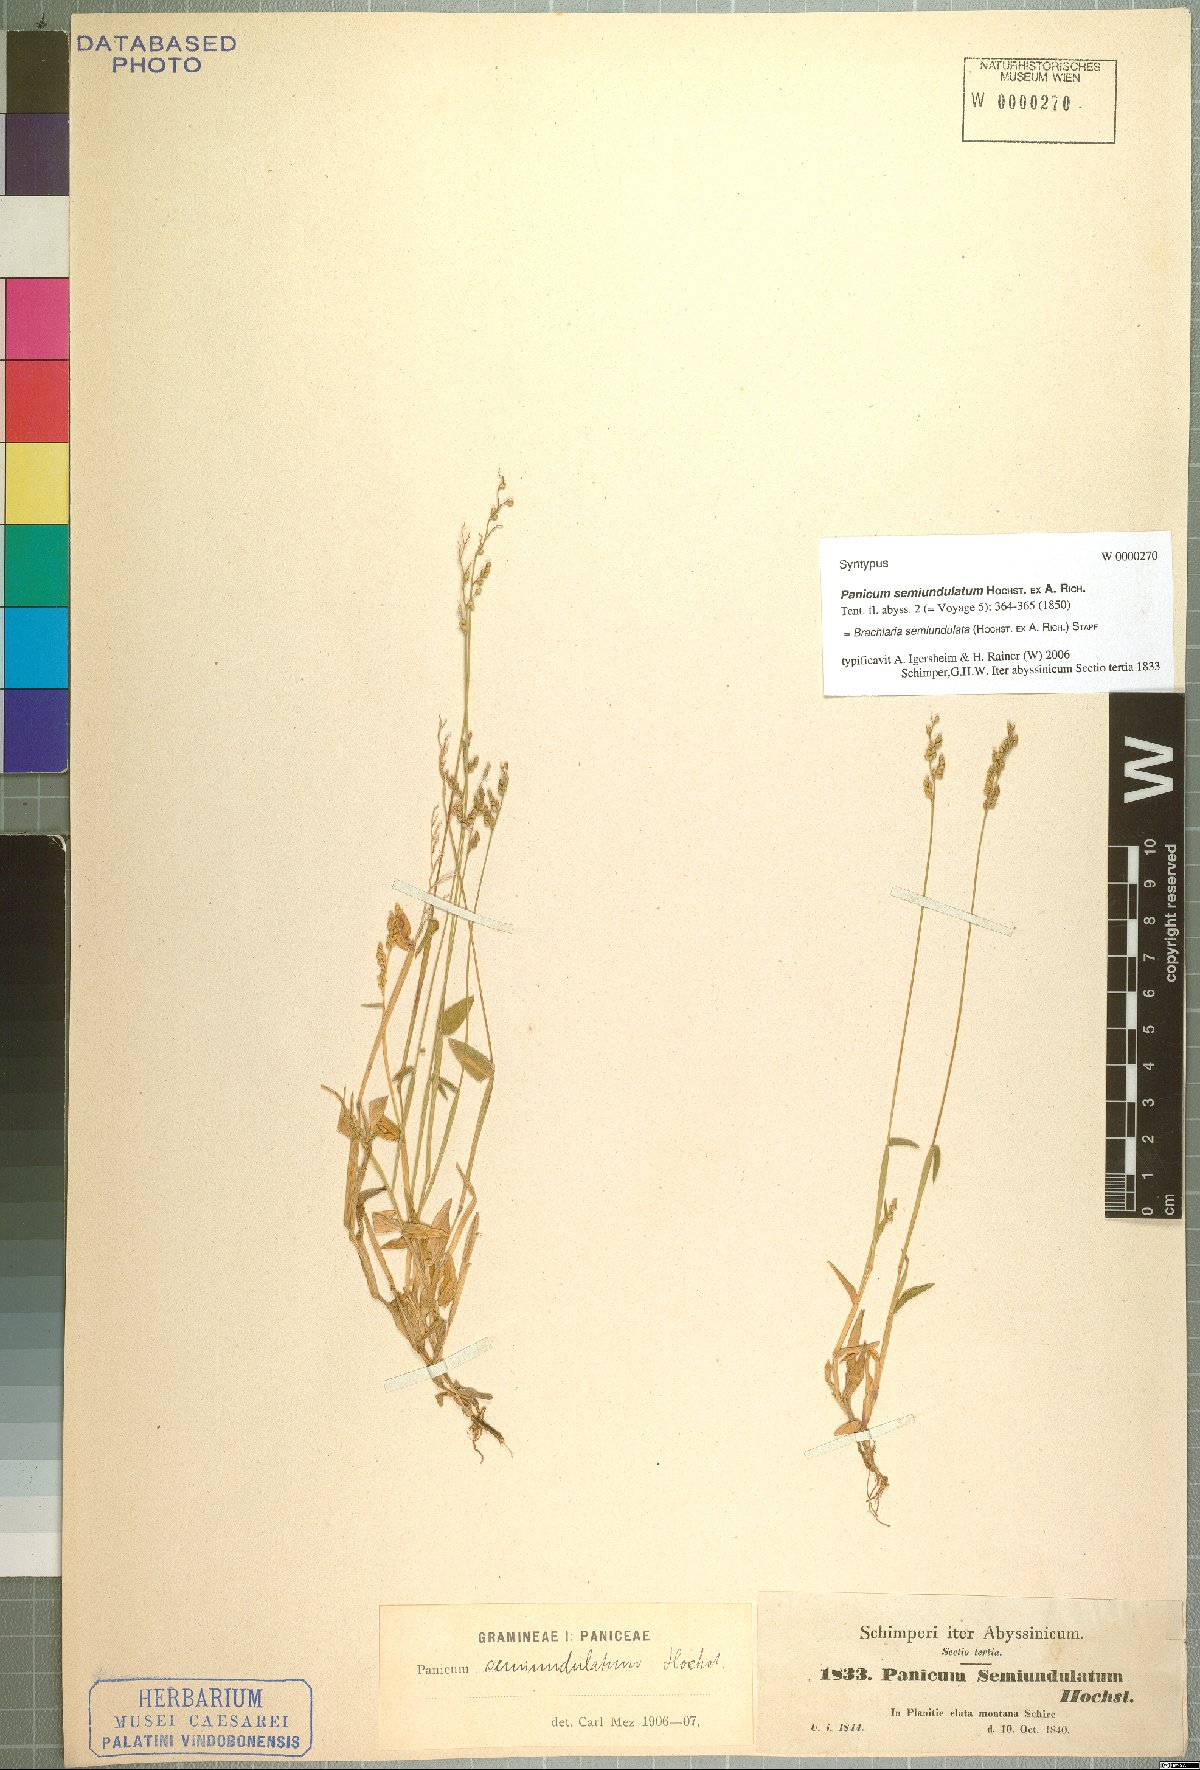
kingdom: Plantae
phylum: Tracheophyta
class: Liliopsida
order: Poales
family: Poaceae
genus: Urochloa
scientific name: Urochloa semiundulata
